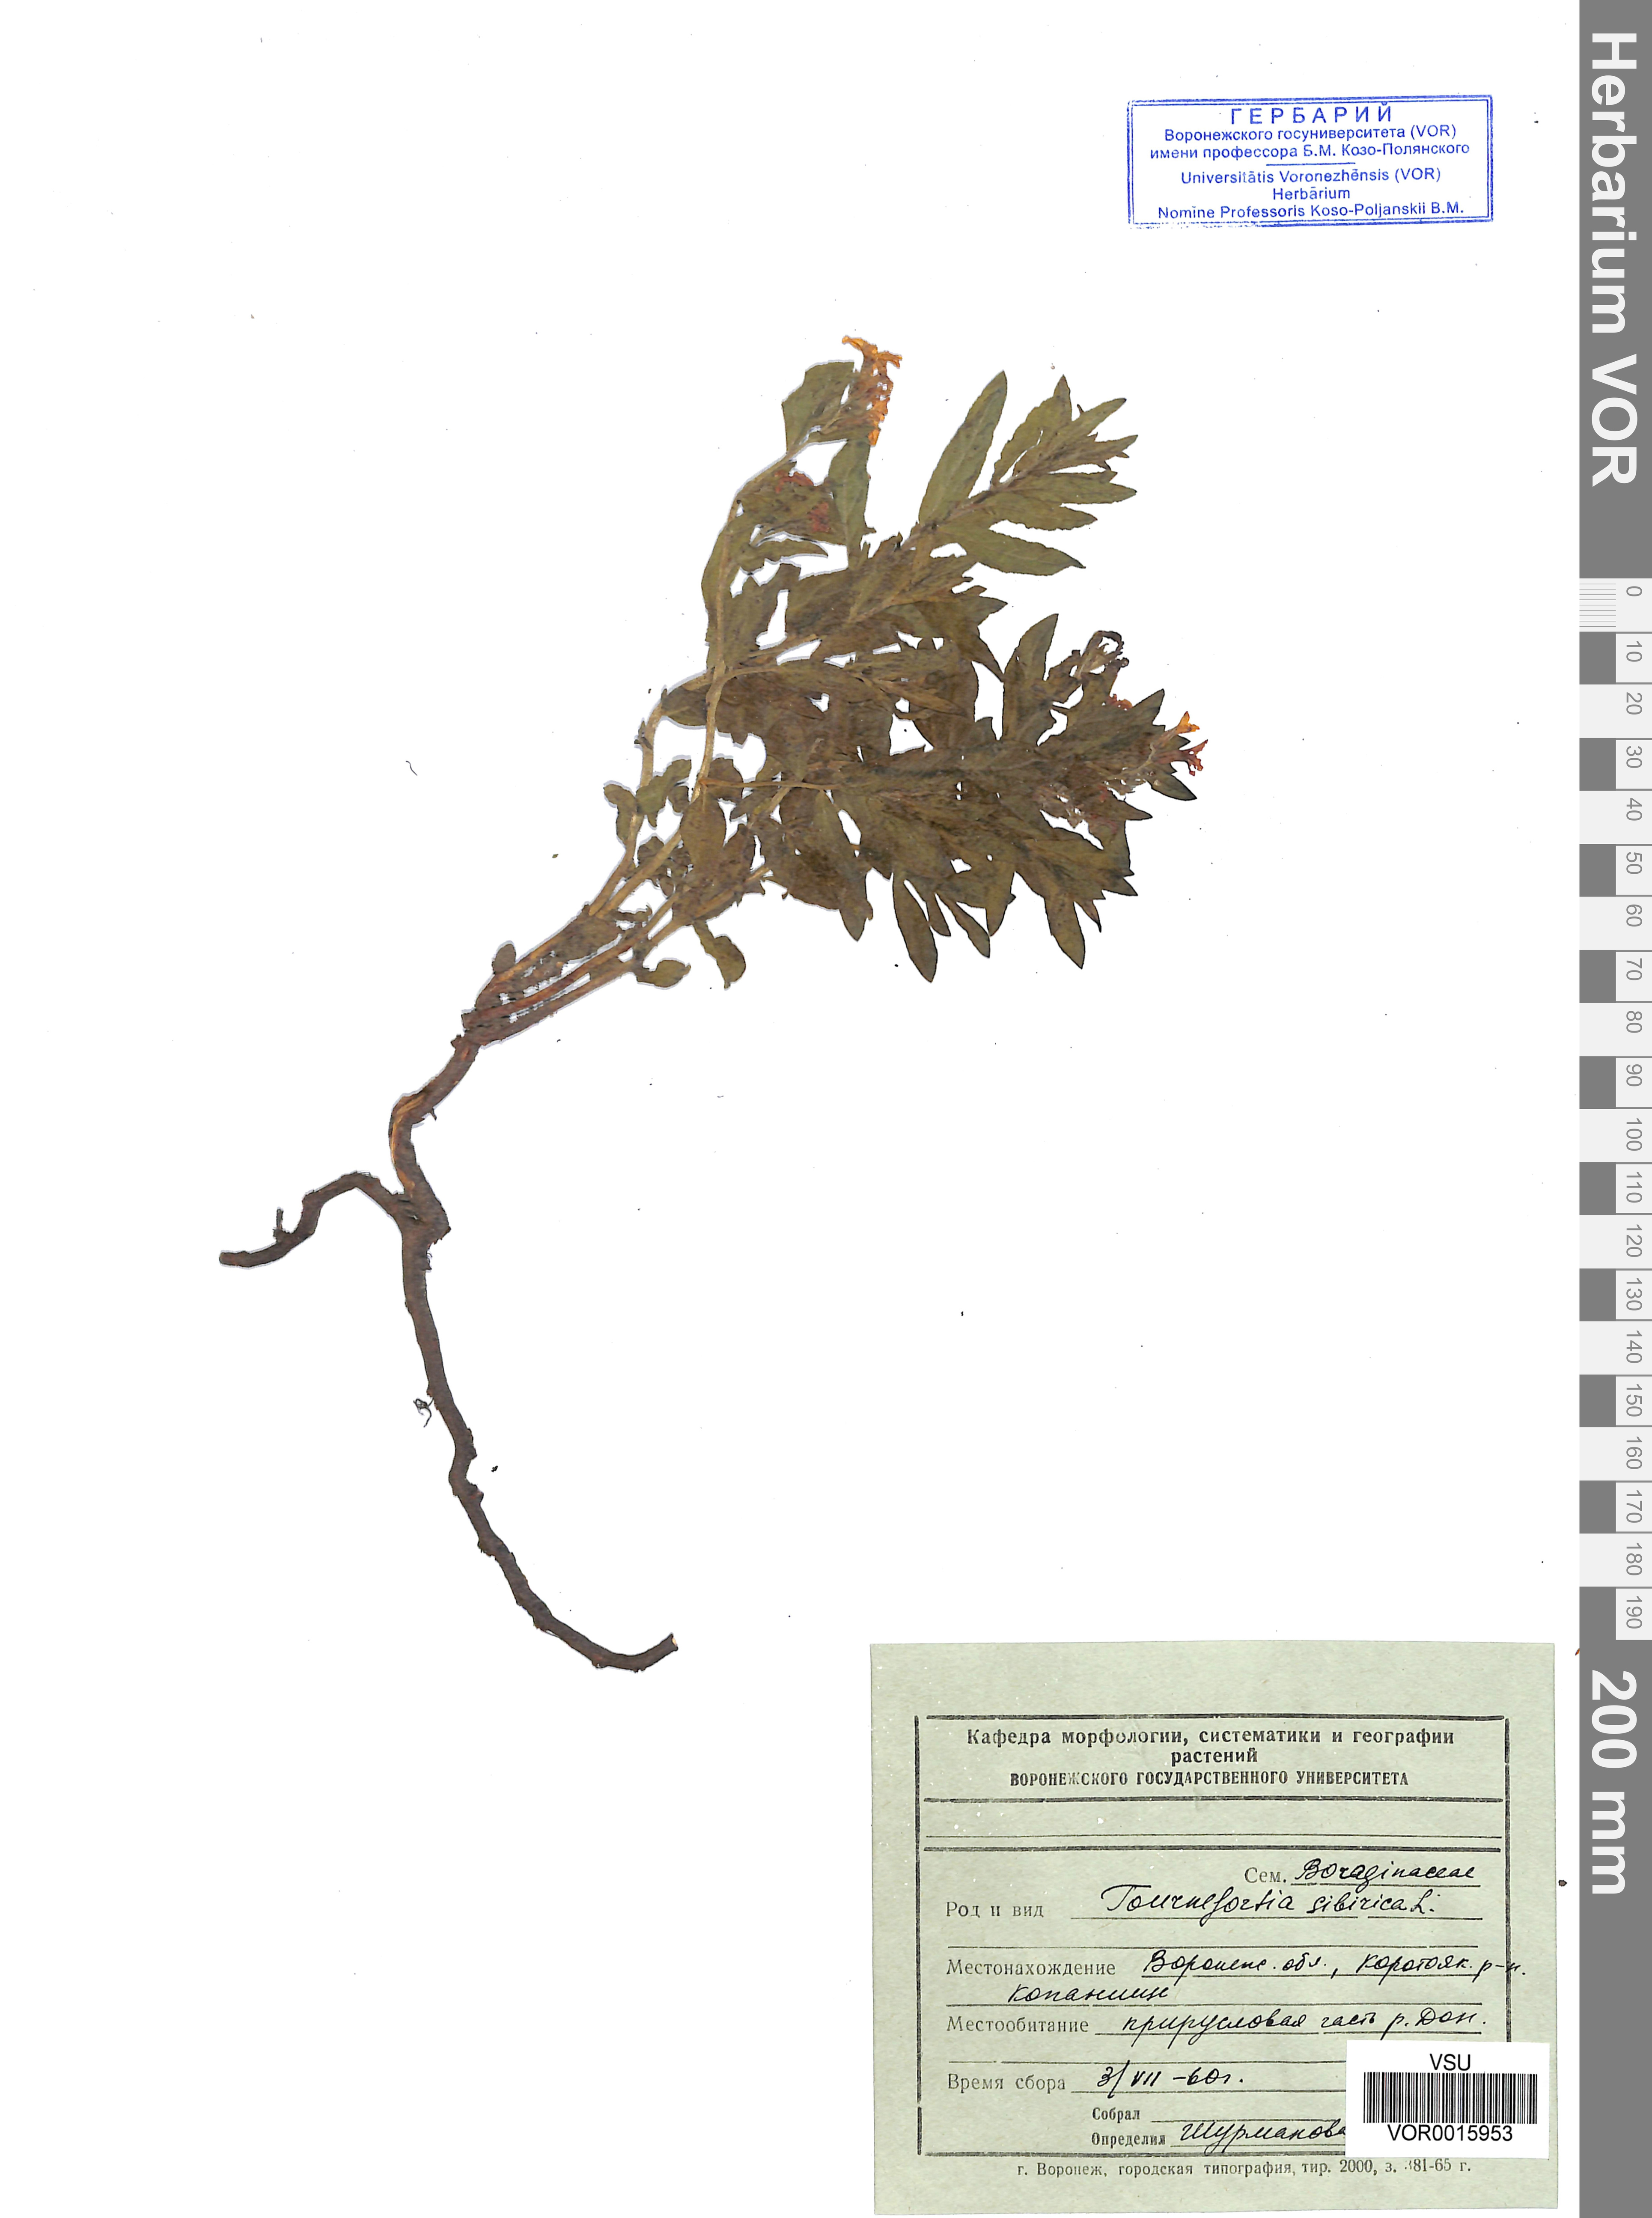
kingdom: Plantae
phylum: Tracheophyta
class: Magnoliopsida
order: Boraginales
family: Heliotropiaceae
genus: Tournefortia
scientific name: Tournefortia sibirica
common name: Siberian sea rosemary
